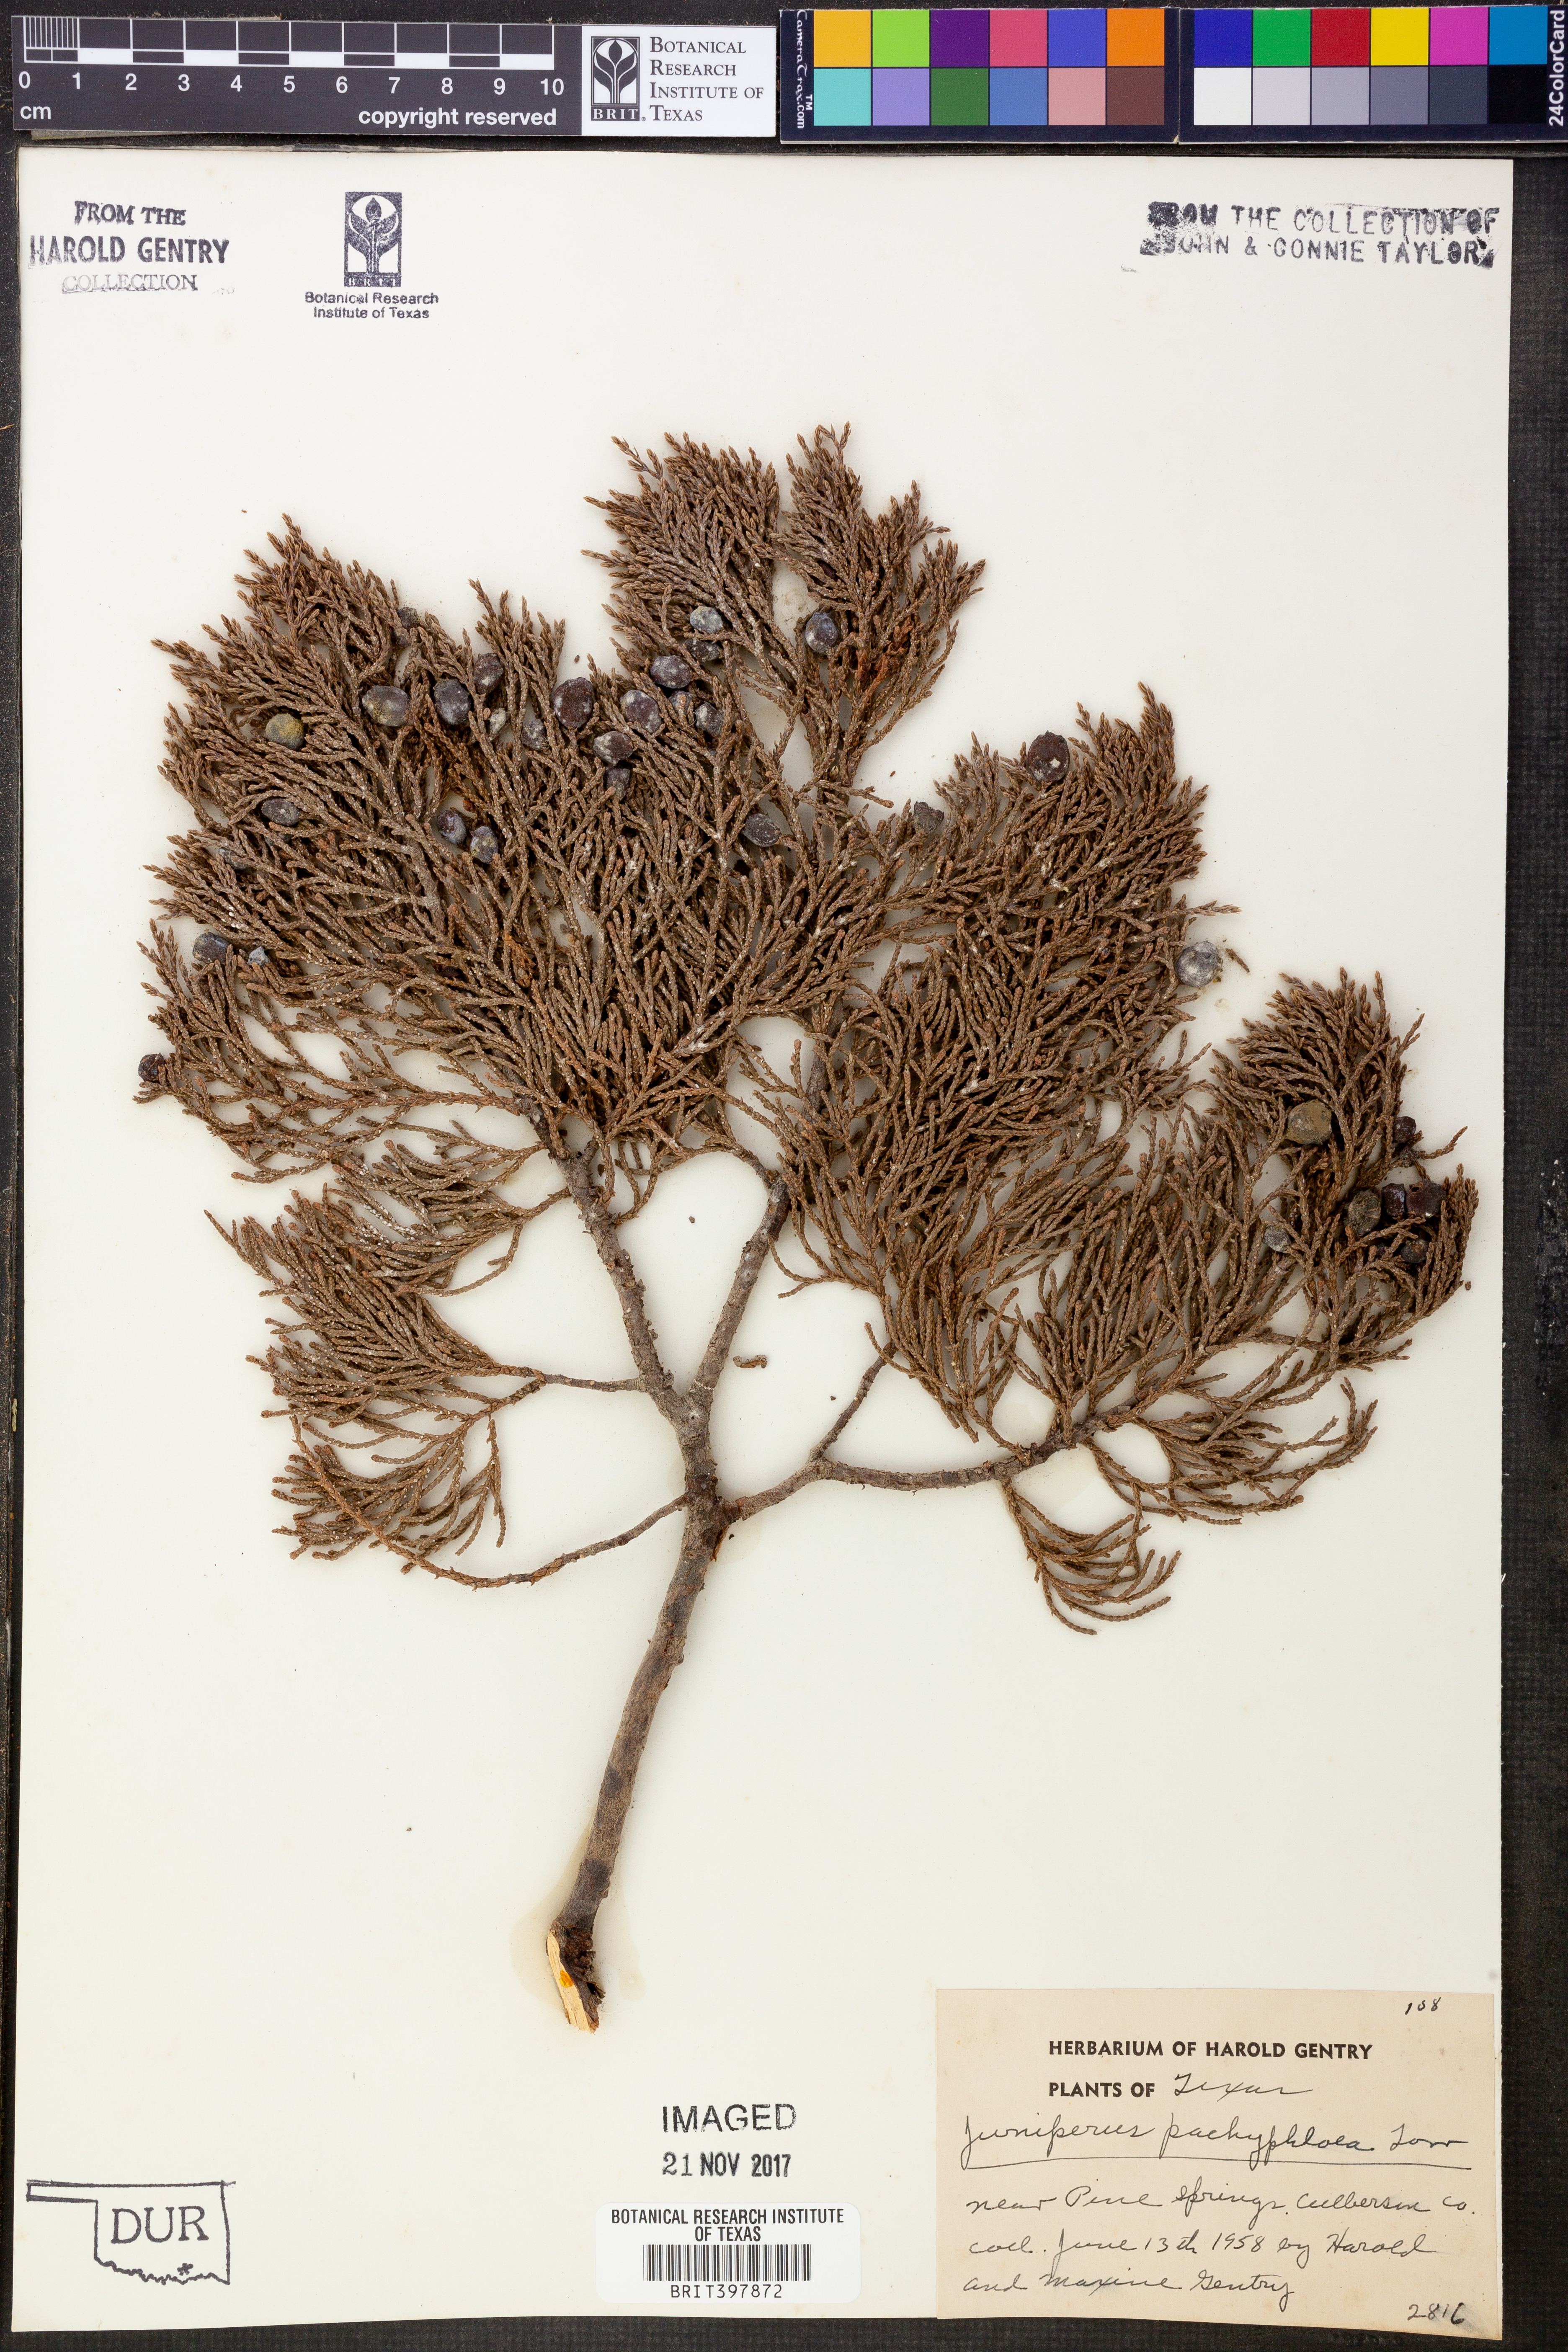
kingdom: Plantae
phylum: Tracheophyta
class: Pinopsida
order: Pinales
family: Cupressaceae
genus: Juniperus
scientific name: Juniperus deppeana
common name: Alligator juniper
